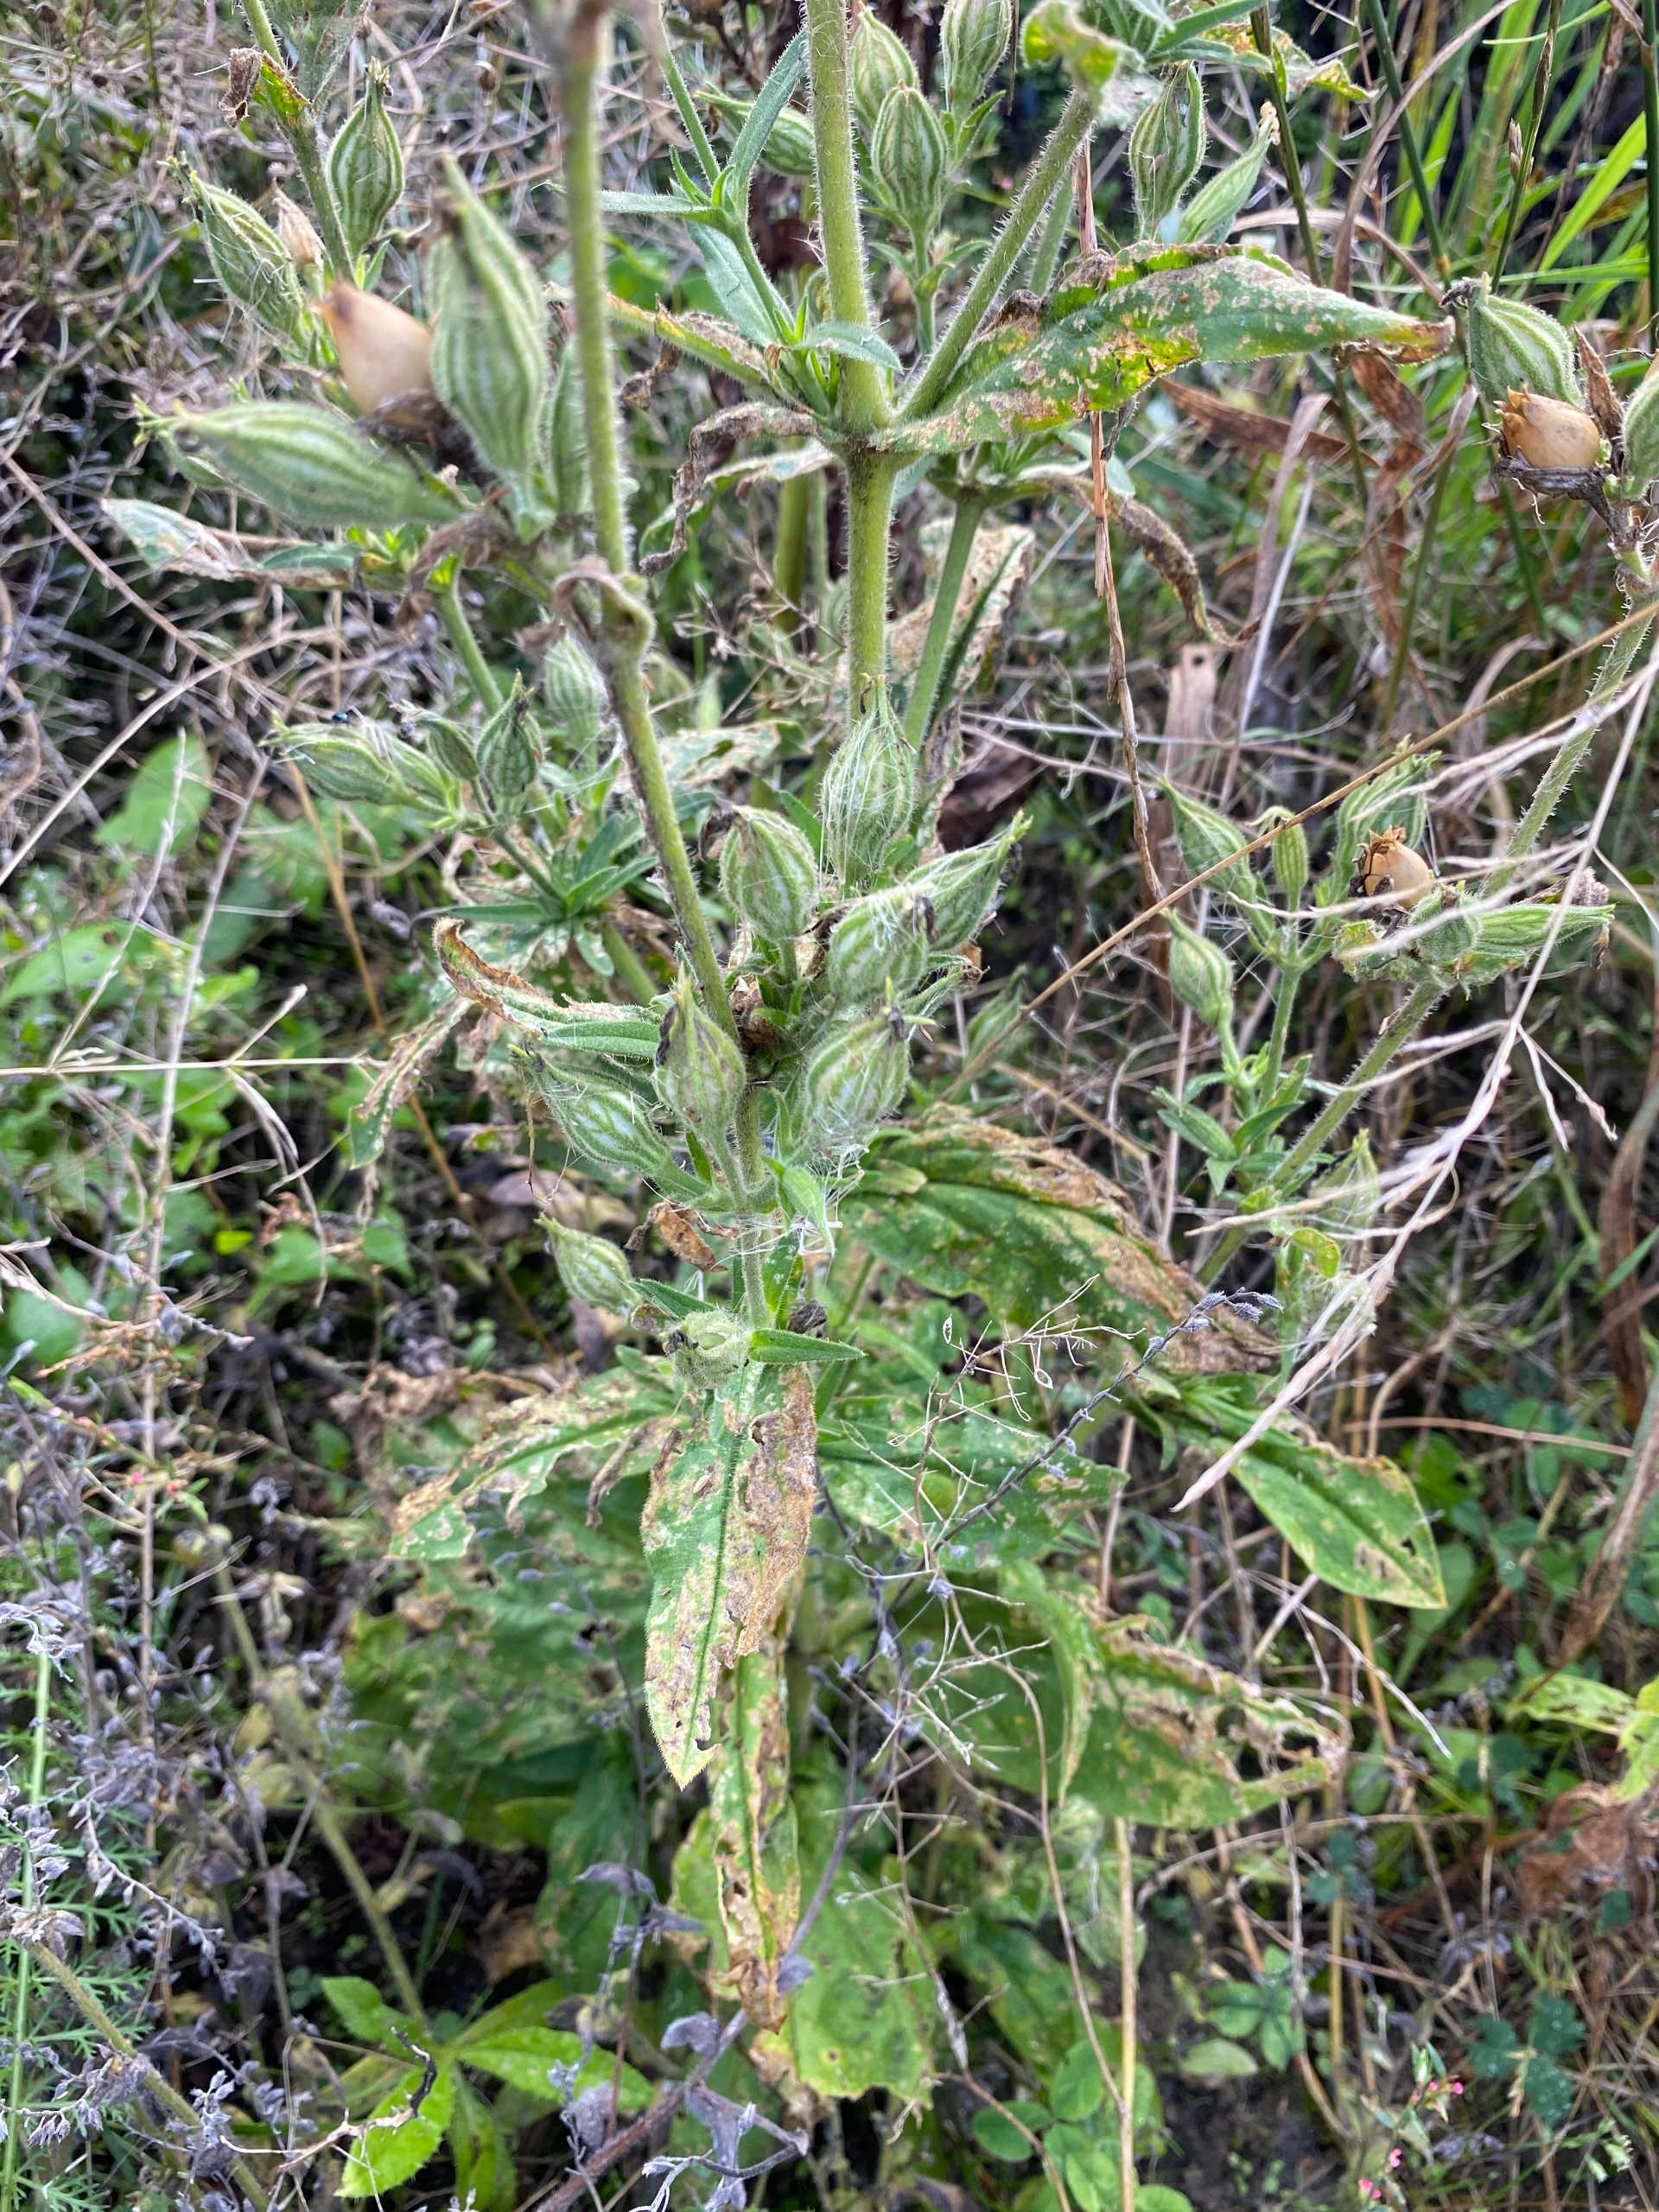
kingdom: Plantae
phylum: Tracheophyta
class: Magnoliopsida
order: Caryophyllales
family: Caryophyllaceae
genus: Silene
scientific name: Silene noctiflora
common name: Nat-limurt
